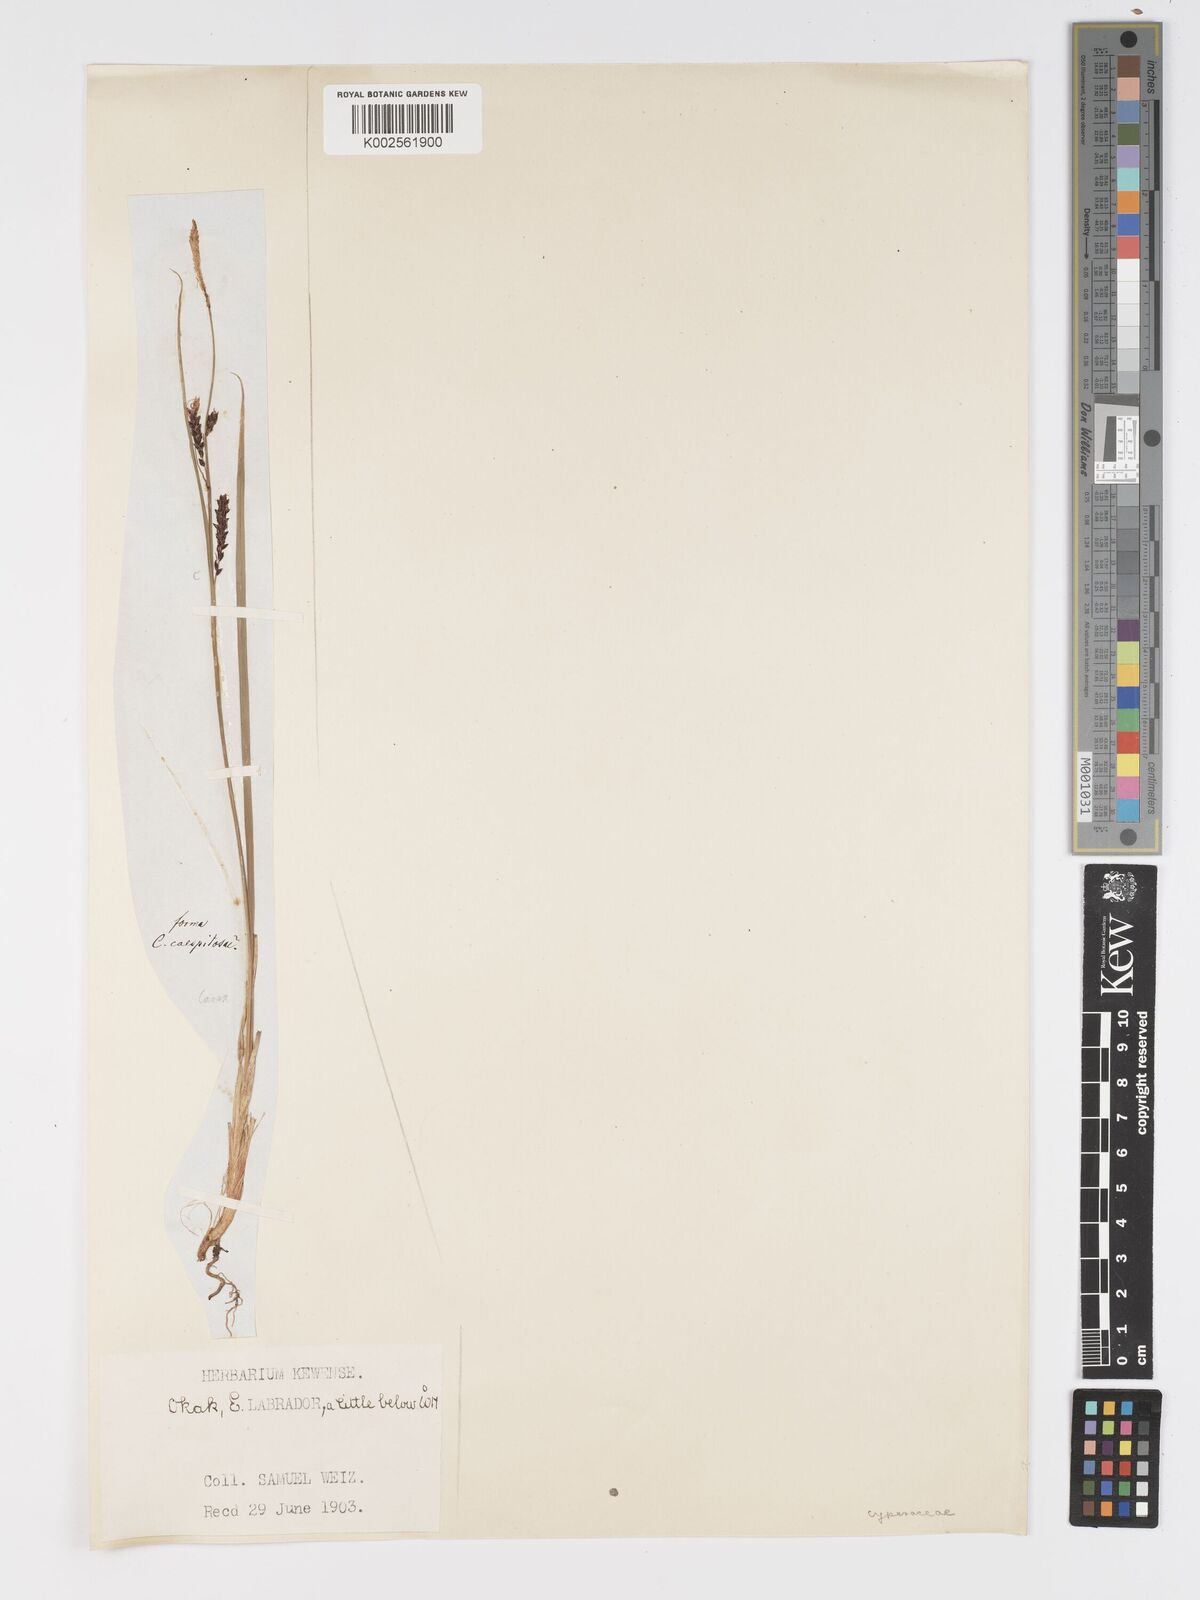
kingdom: Plantae
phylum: Tracheophyta
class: Liliopsida
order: Poales
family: Cyperaceae
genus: Carex
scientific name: Carex bigelowii
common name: Stiff sedge
